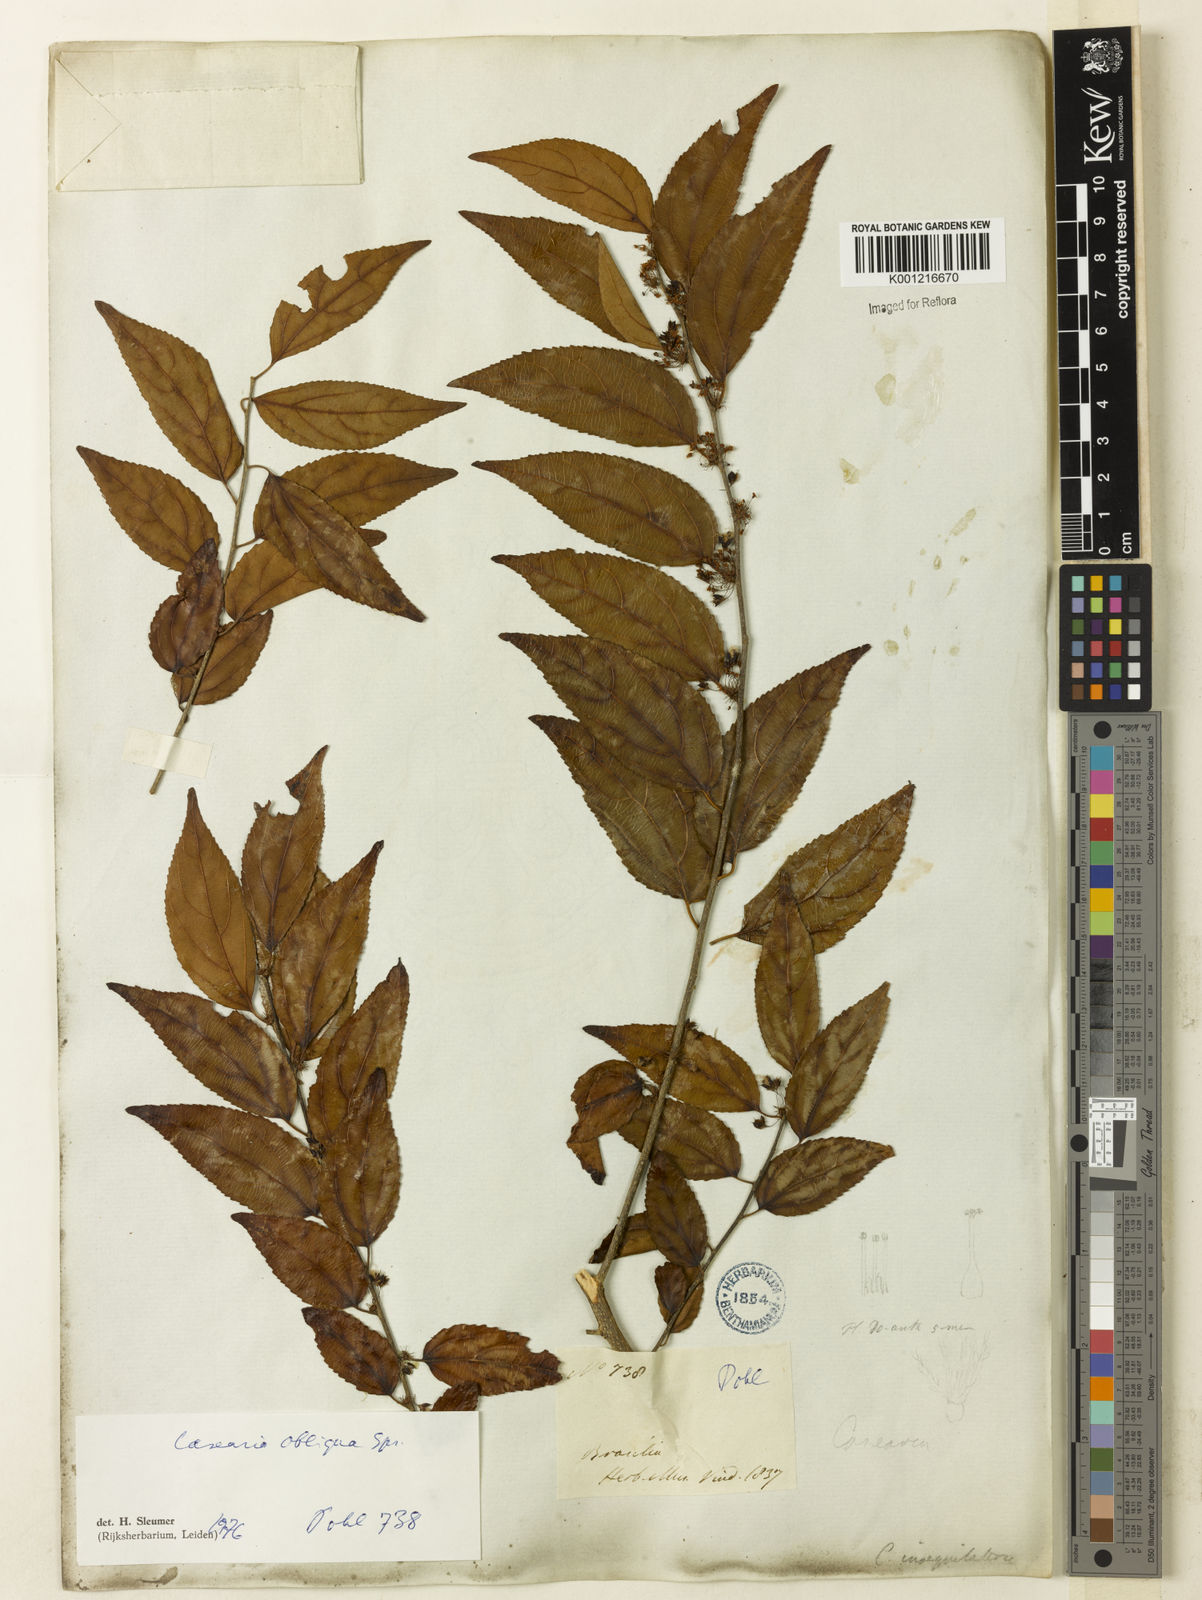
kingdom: Plantae
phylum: Tracheophyta
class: Magnoliopsida
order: Malpighiales
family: Salicaceae
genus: Casearia
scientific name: Casearia obliqua
